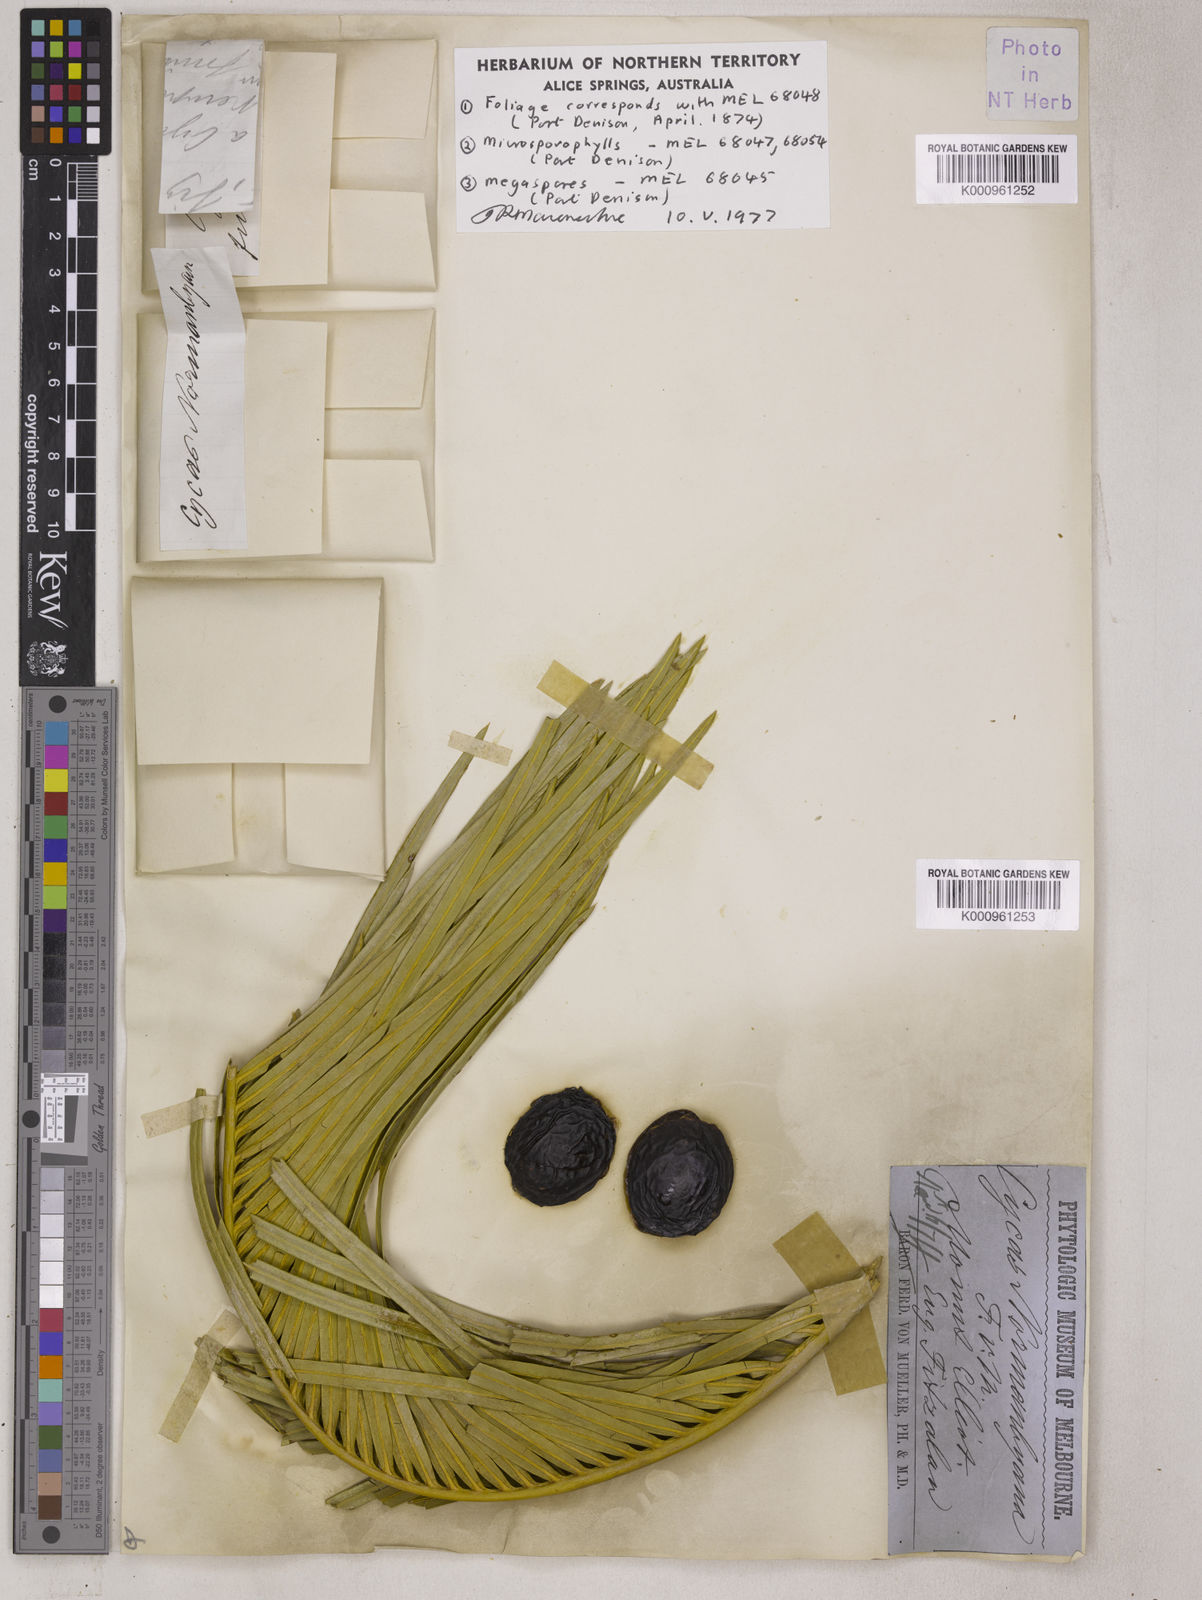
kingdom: Plantae
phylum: Tracheophyta
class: Cycadopsida
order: Cycadales
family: Cycadaceae
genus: Cycas
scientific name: Cycas media
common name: Queensland cycas
